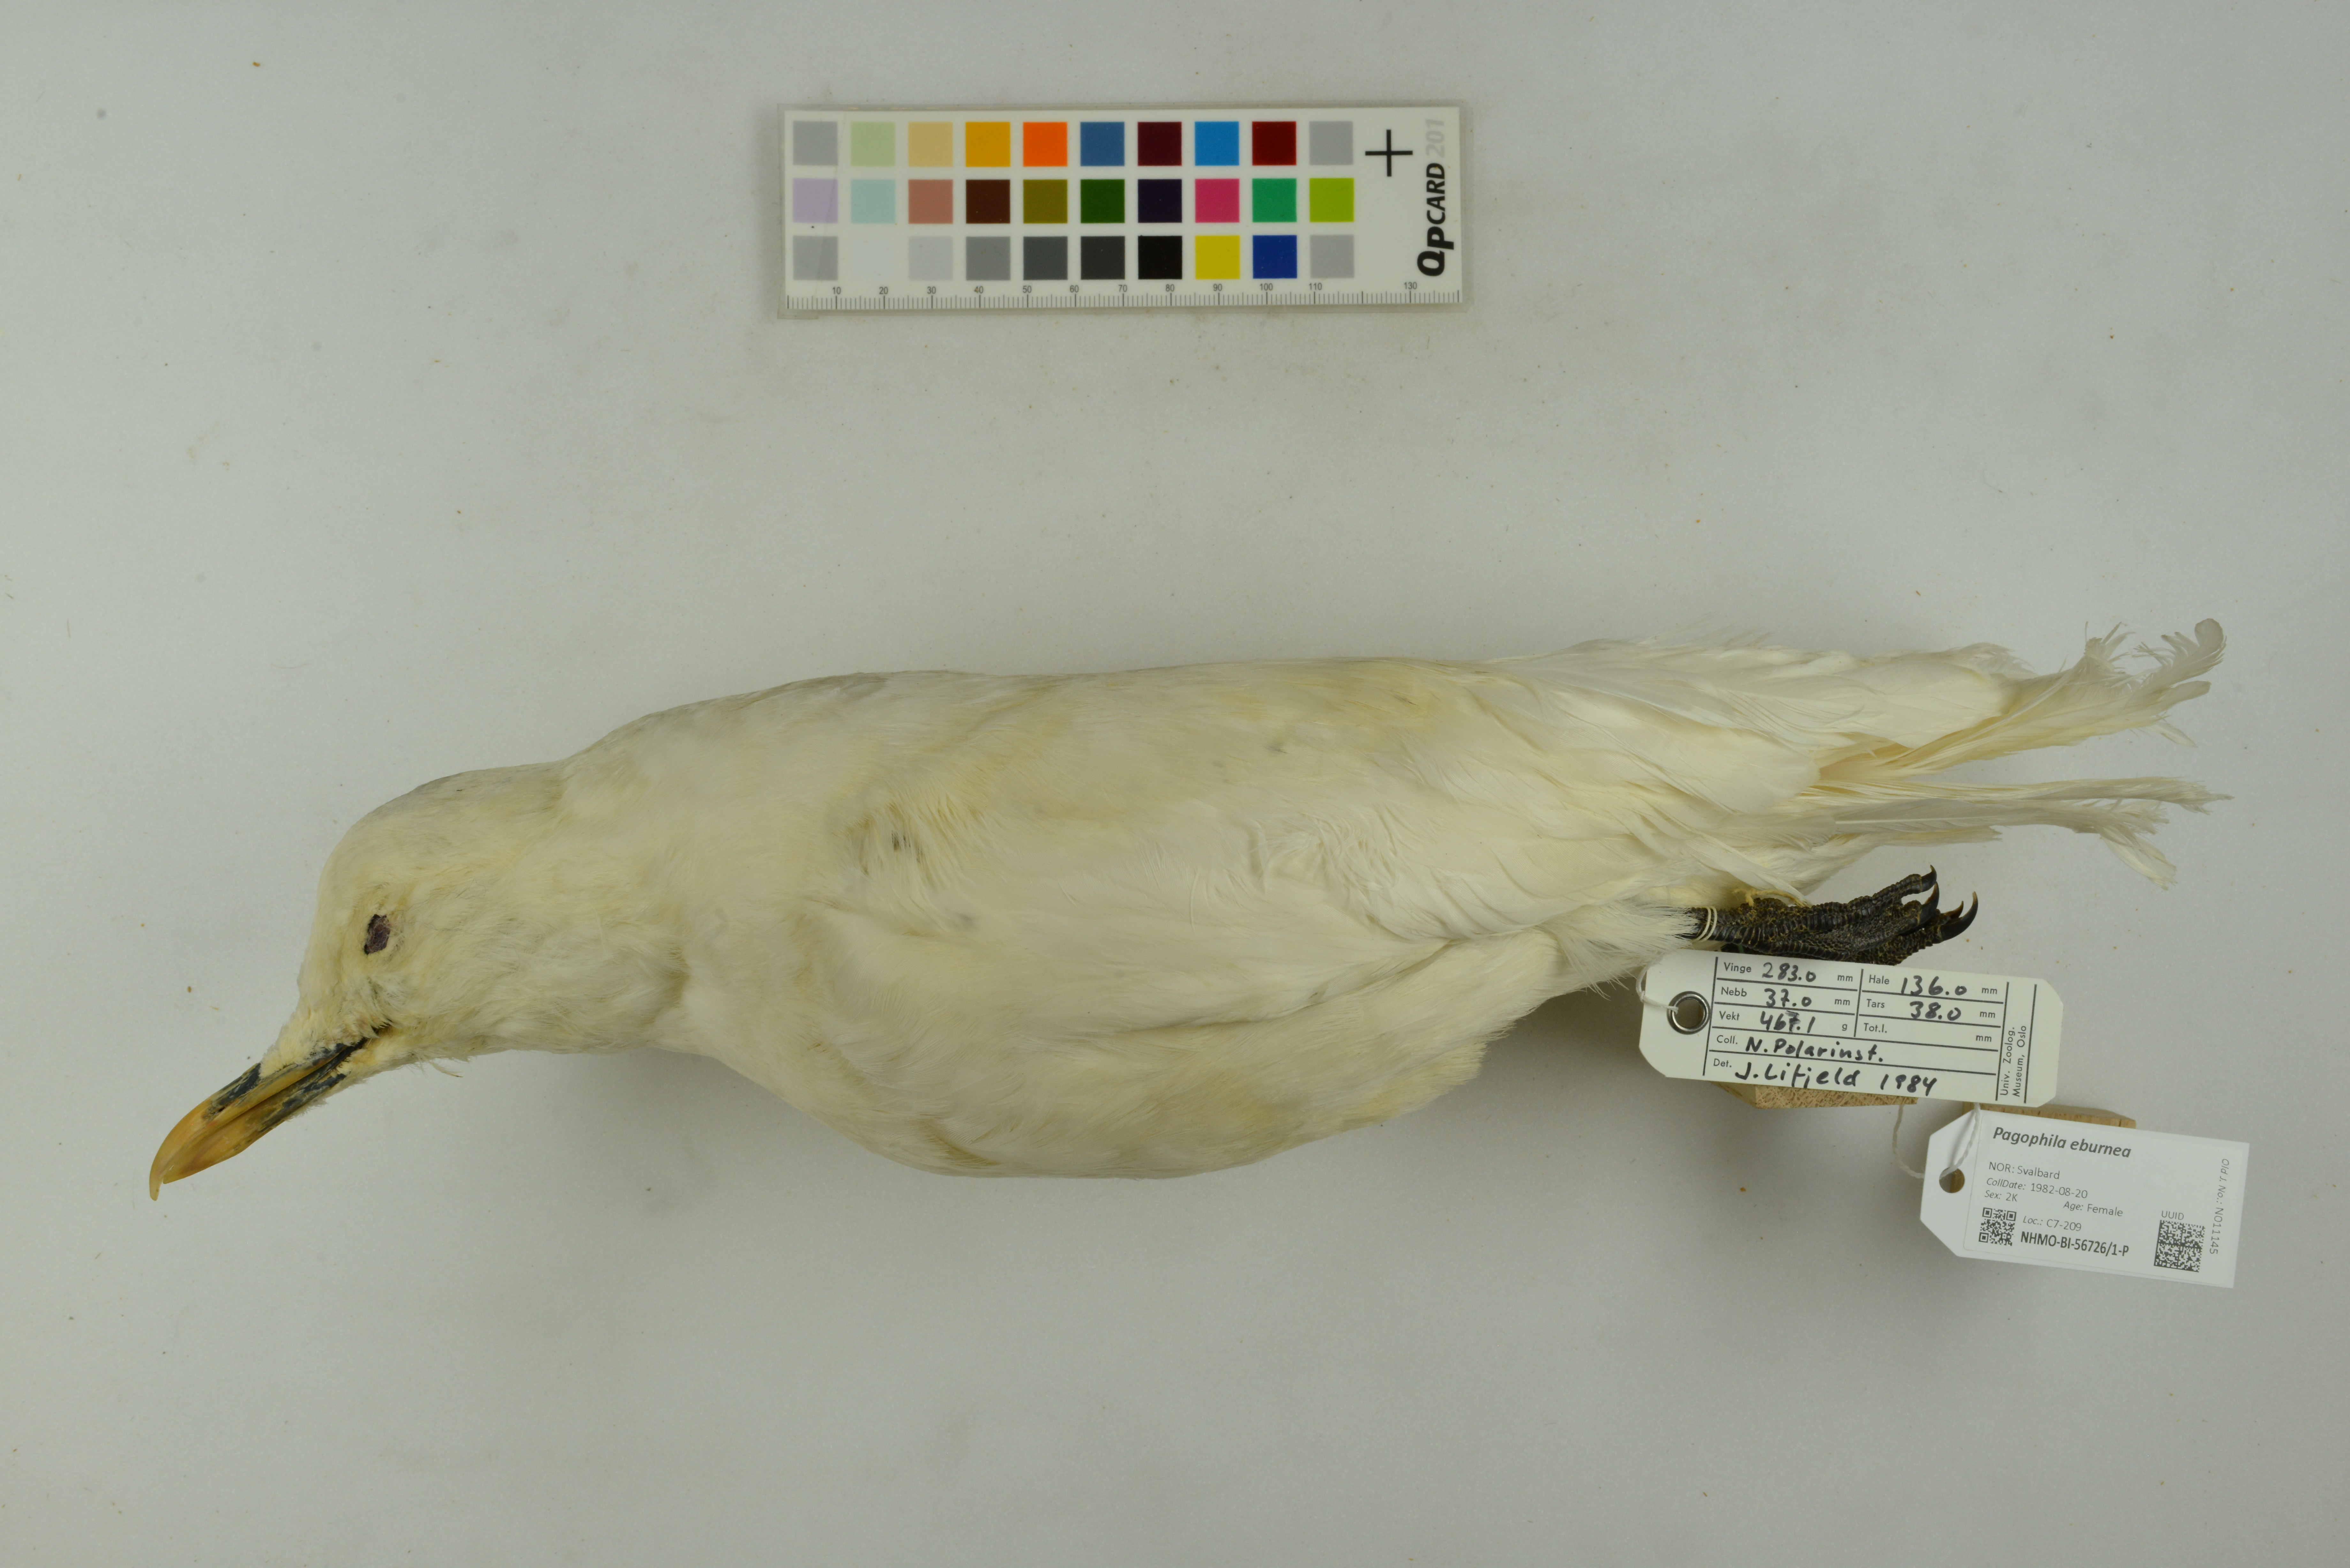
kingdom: Animalia
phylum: Chordata
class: Aves
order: Charadriiformes
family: Laridae
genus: Pagophila
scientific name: Pagophila eburnea
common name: Ivory gull
